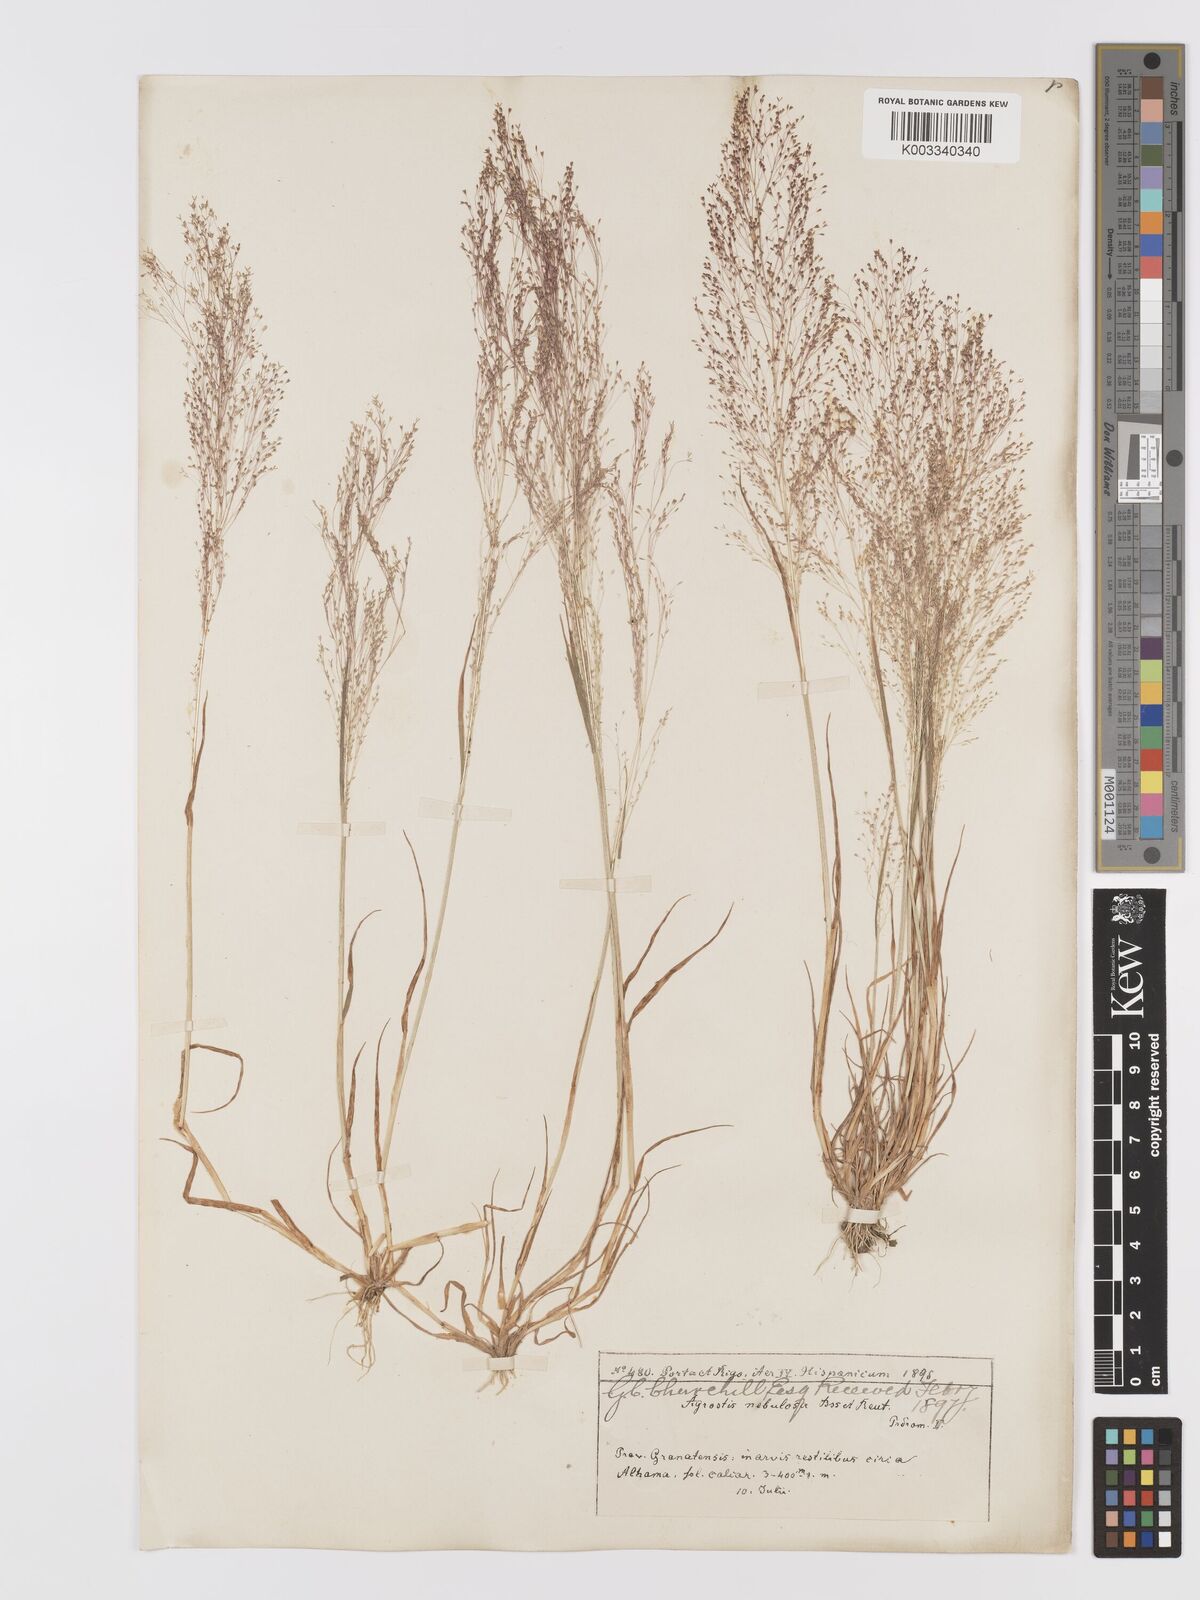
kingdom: Plantae
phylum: Tracheophyta
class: Liliopsida
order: Poales
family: Poaceae
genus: Agrostis
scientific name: Agrostis nebulosa
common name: Cloud grass
